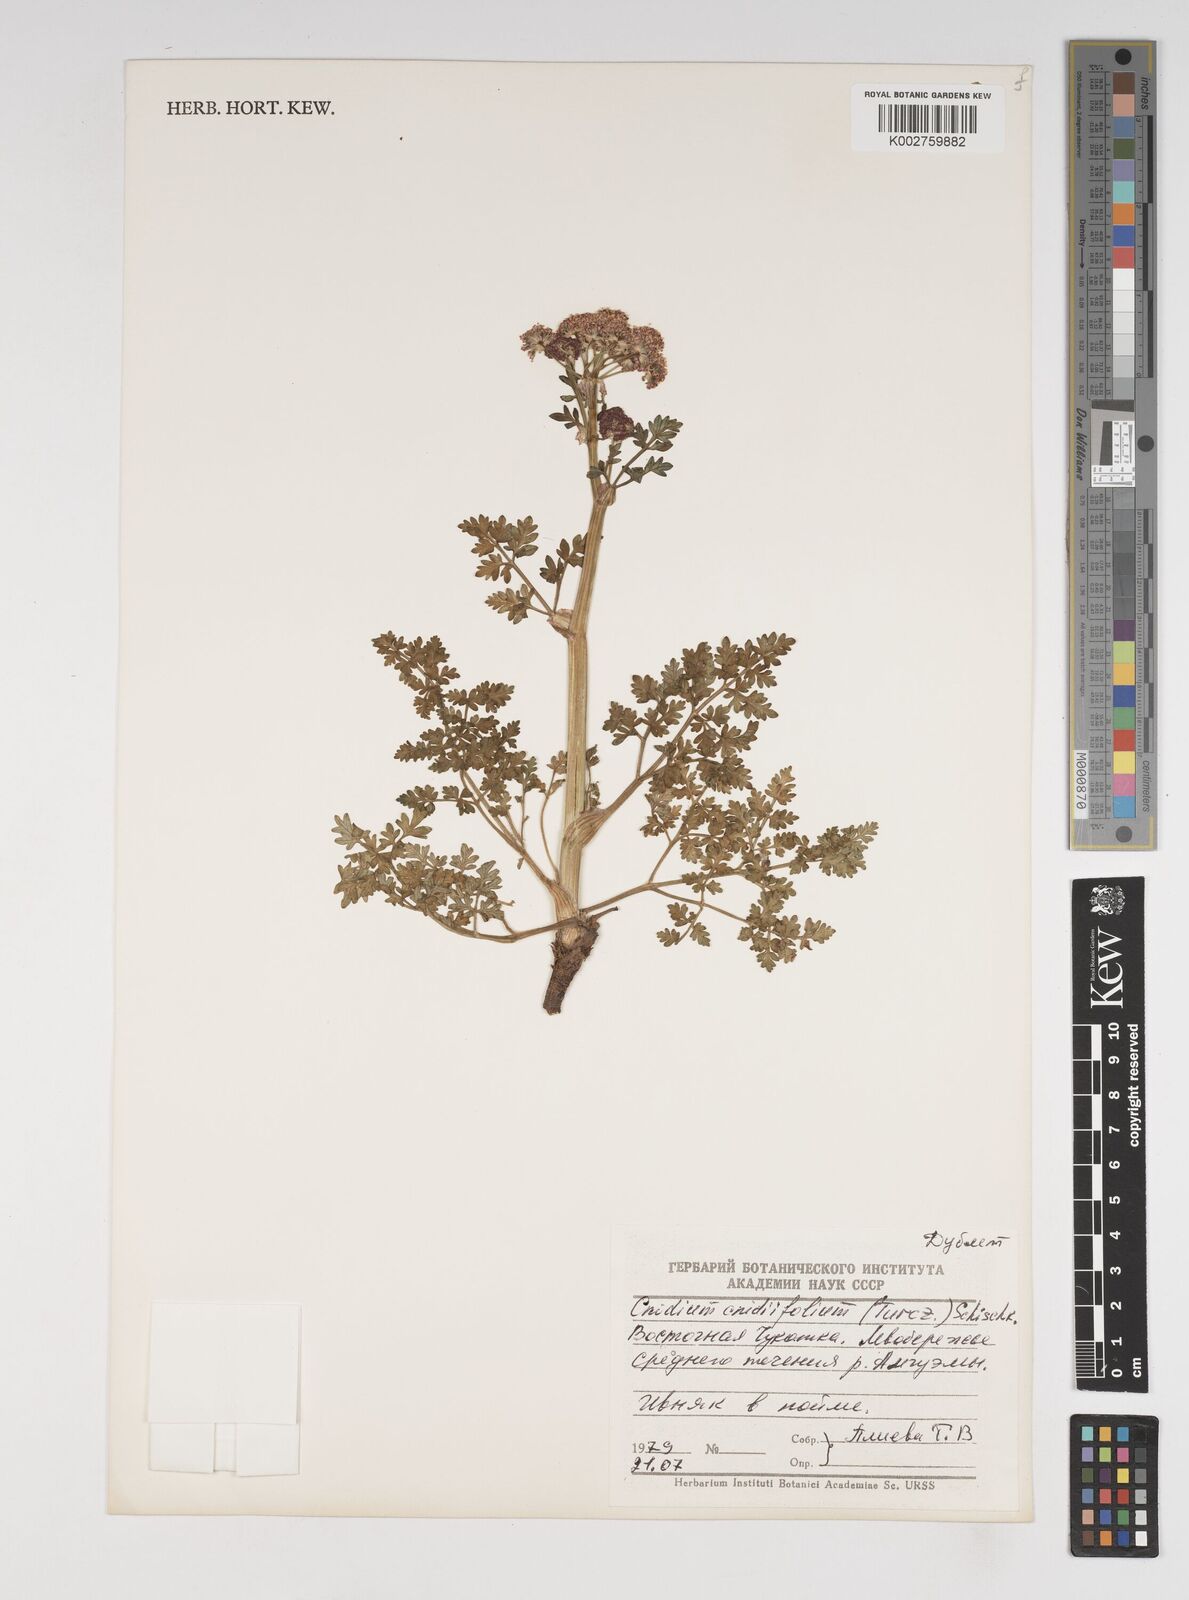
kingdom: Plantae
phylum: Tracheophyta
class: Magnoliopsida
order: Apiales
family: Apiaceae
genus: Cnidium
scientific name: Cnidium cnidiifolium
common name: Northern hemlock-parsley
